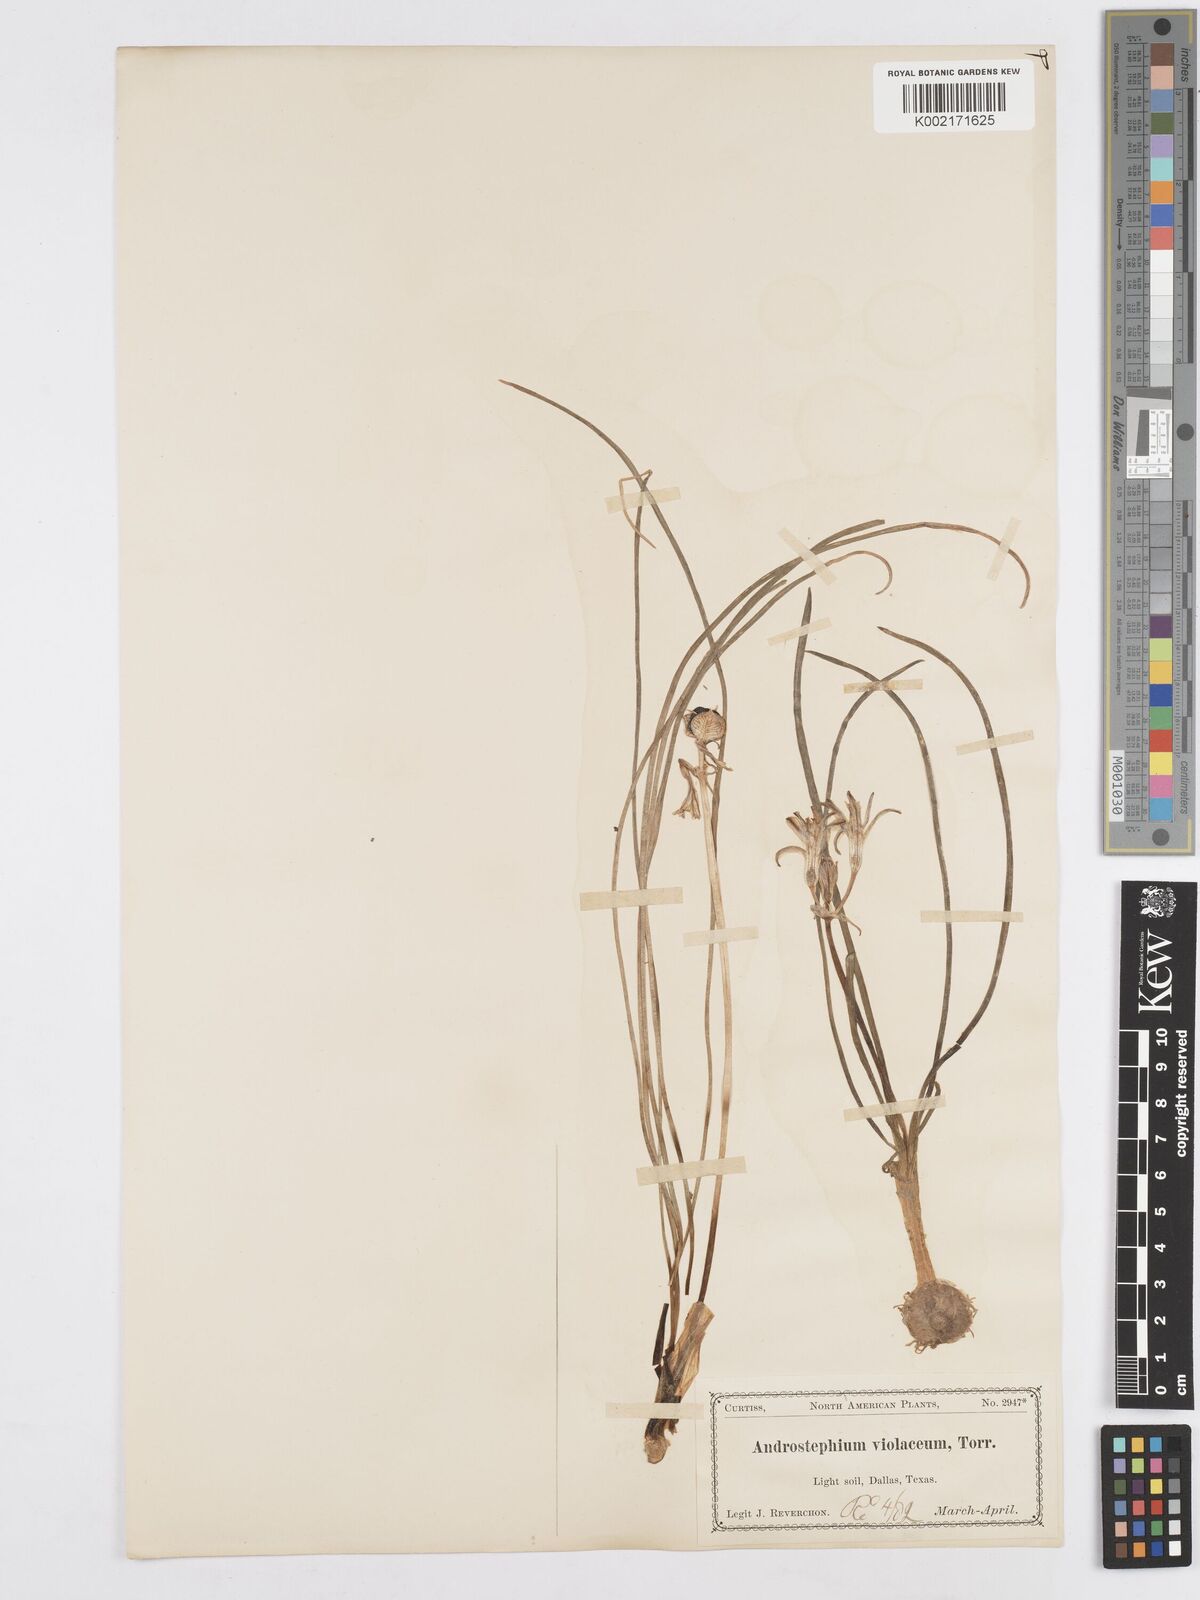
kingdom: Plantae
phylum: Tracheophyta
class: Liliopsida
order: Asparagales
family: Asparagaceae
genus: Androstephium
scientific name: Androstephium coeruleum
